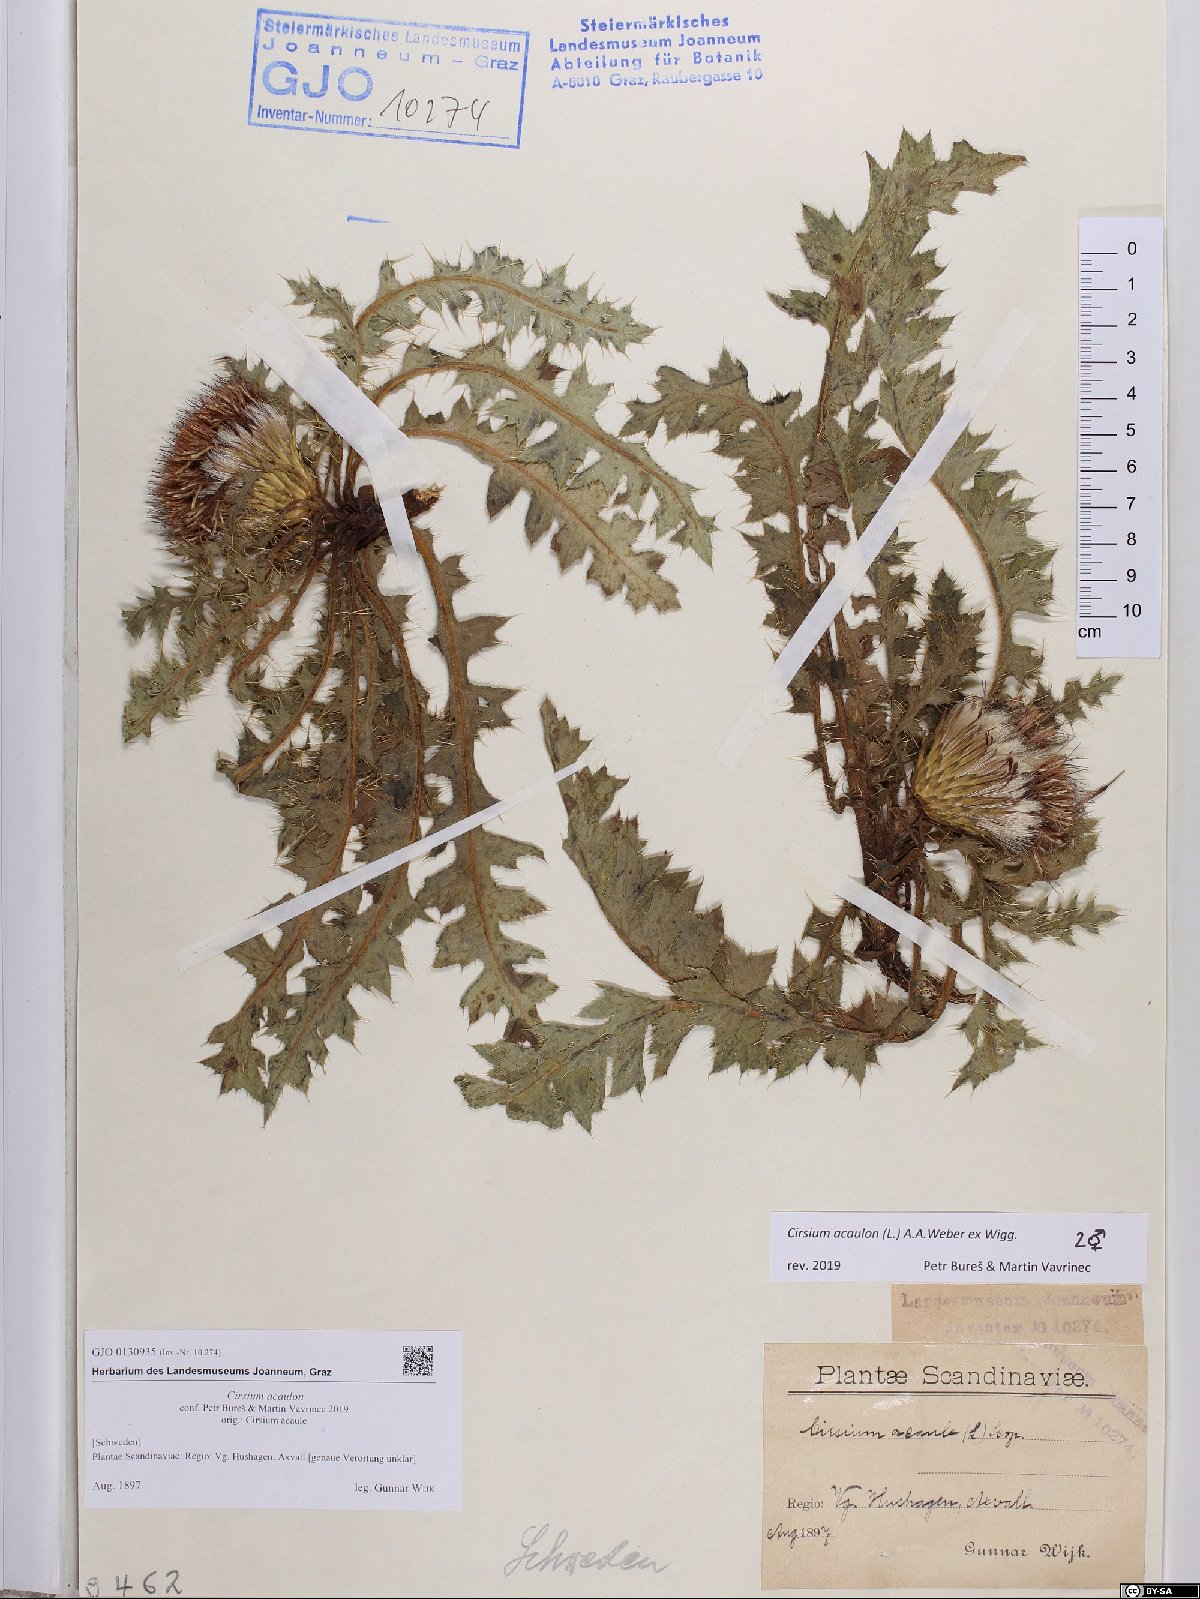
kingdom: Plantae
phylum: Tracheophyta
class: Magnoliopsida
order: Asterales
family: Asteraceae
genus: Cirsium
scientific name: Cirsium acaulon
